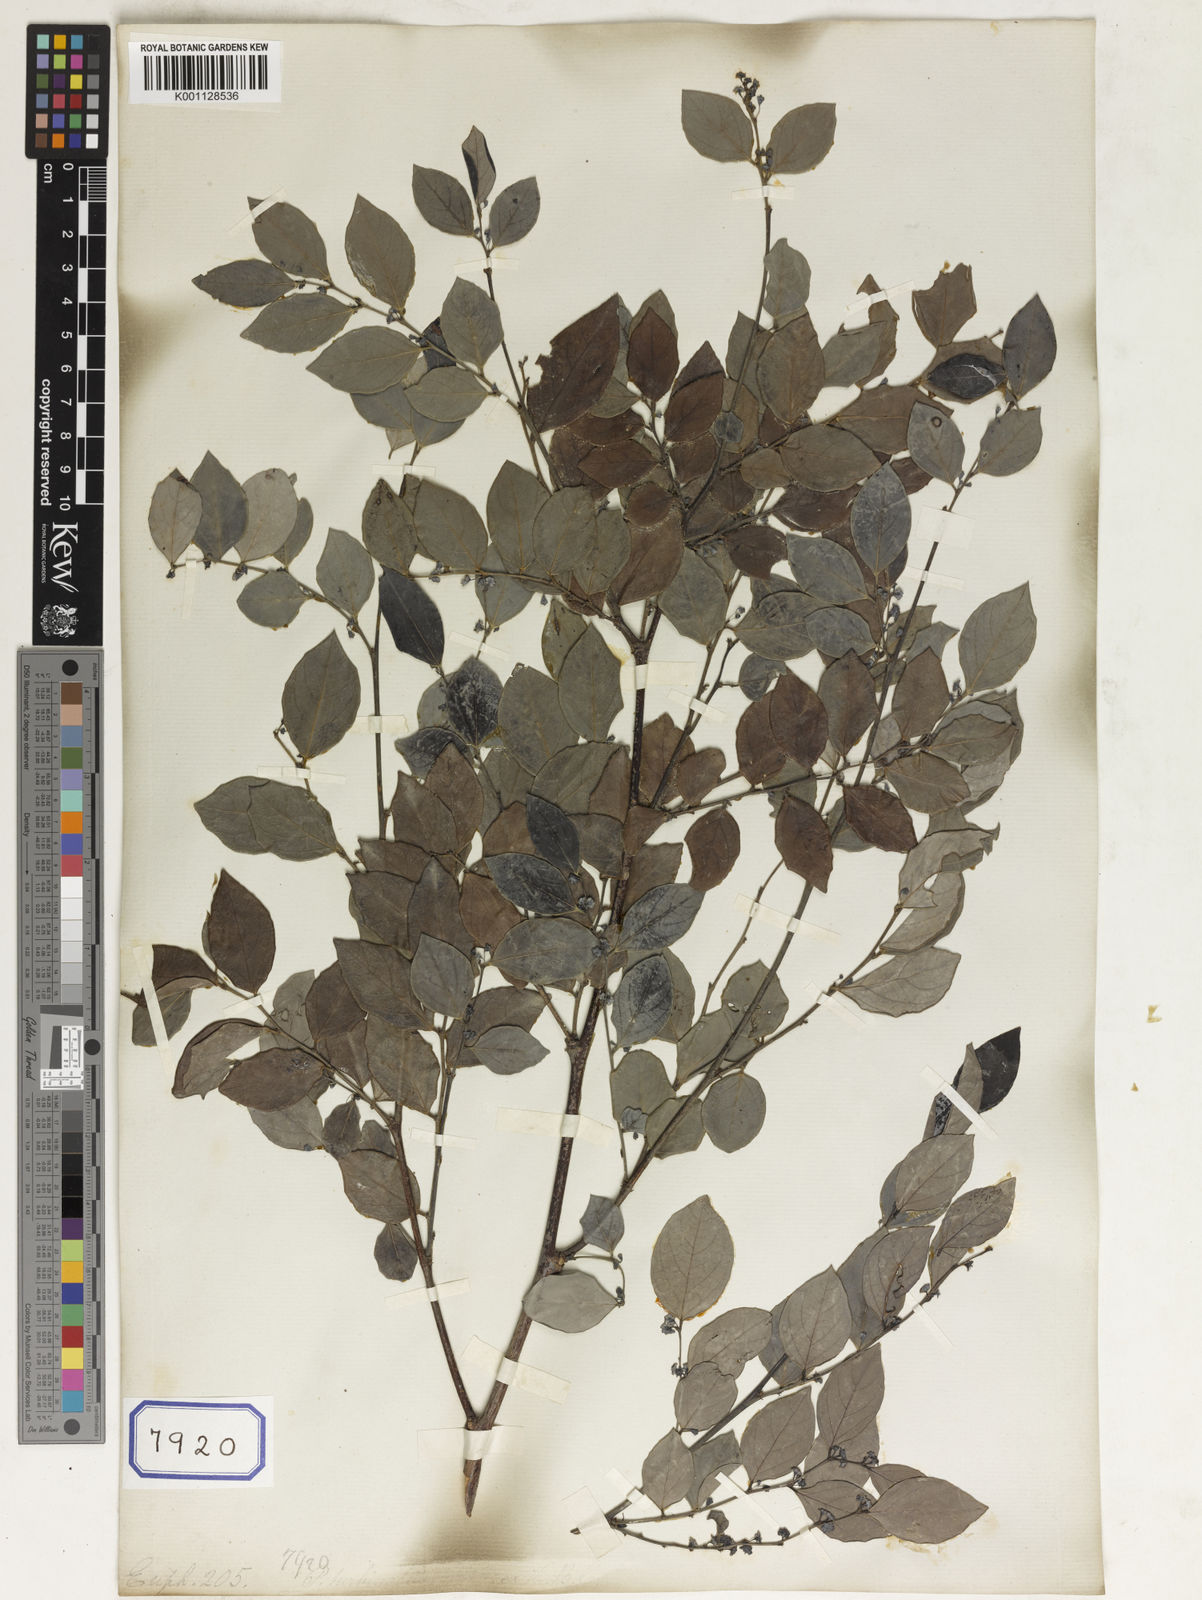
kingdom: Plantae
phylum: Tracheophyta
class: Magnoliopsida
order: Malpighiales
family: Euphorbiaceae
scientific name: Euphorbiaceae
